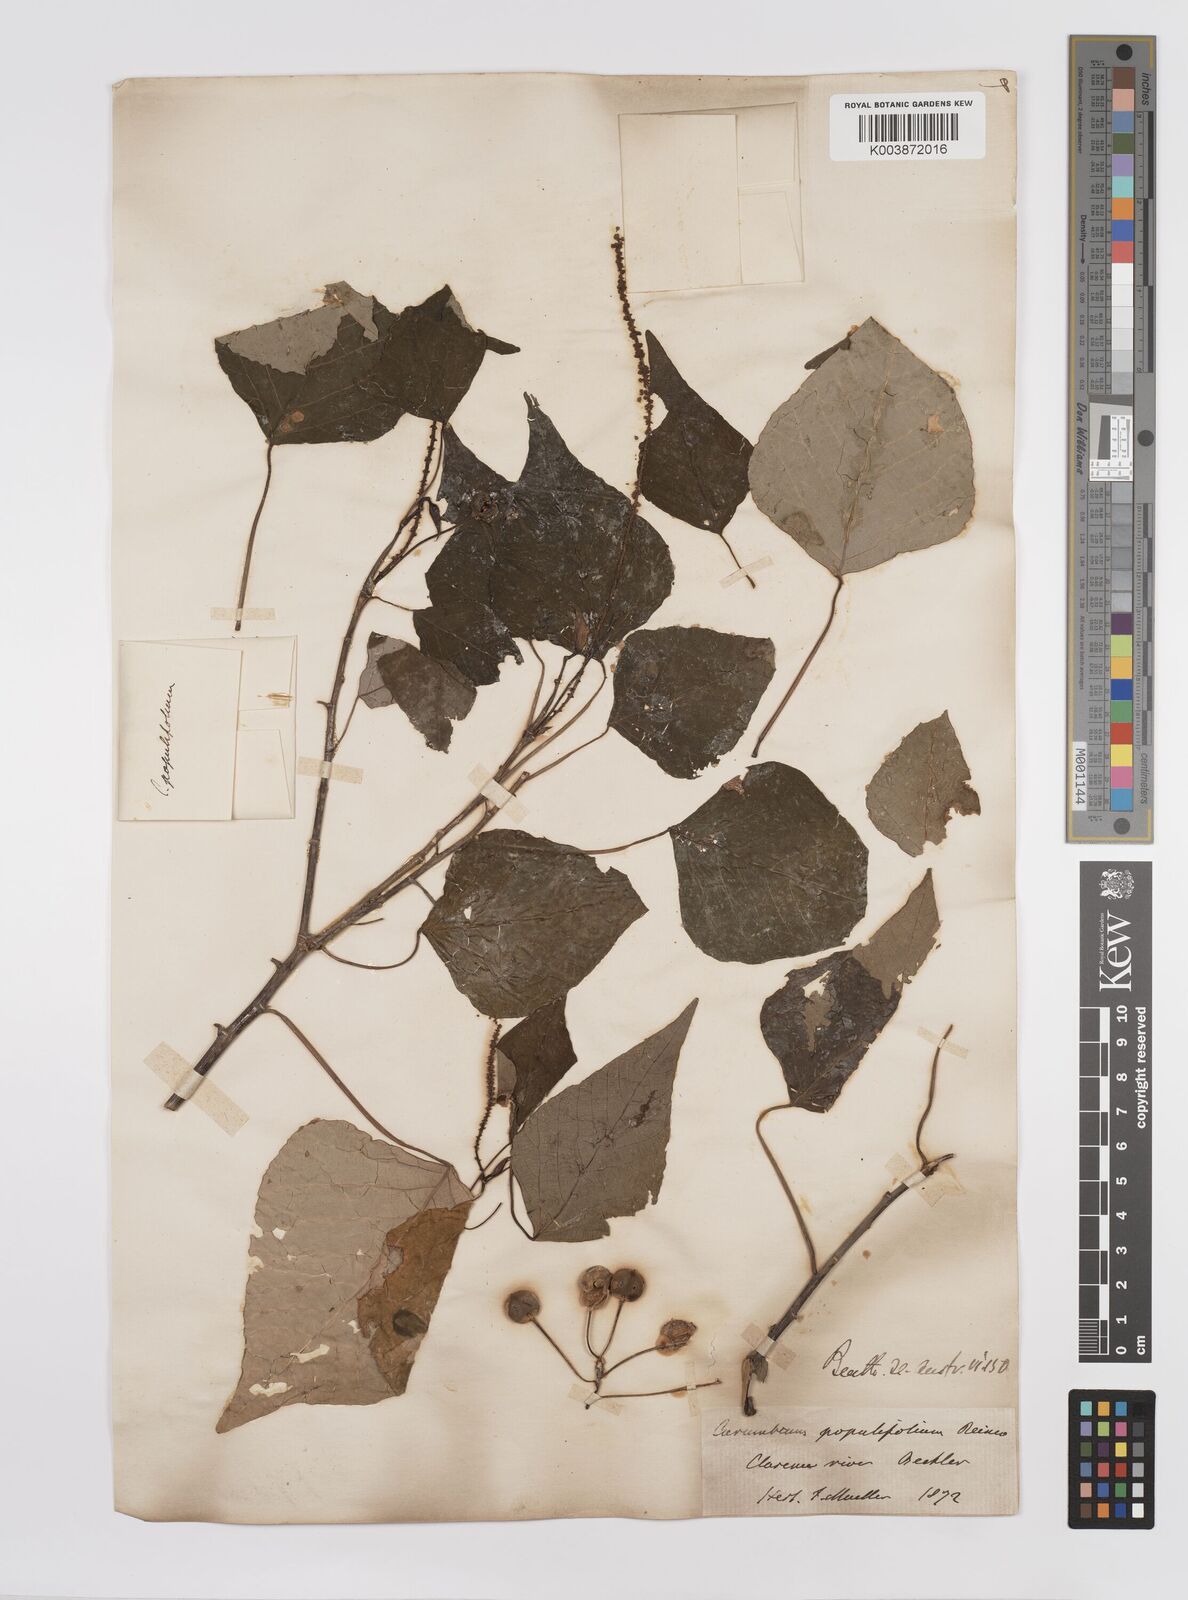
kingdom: Plantae
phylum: Tracheophyta
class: Magnoliopsida
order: Malpighiales
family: Euphorbiaceae
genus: Homalanthus
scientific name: Homalanthus populifolius
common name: Queensland poplar
